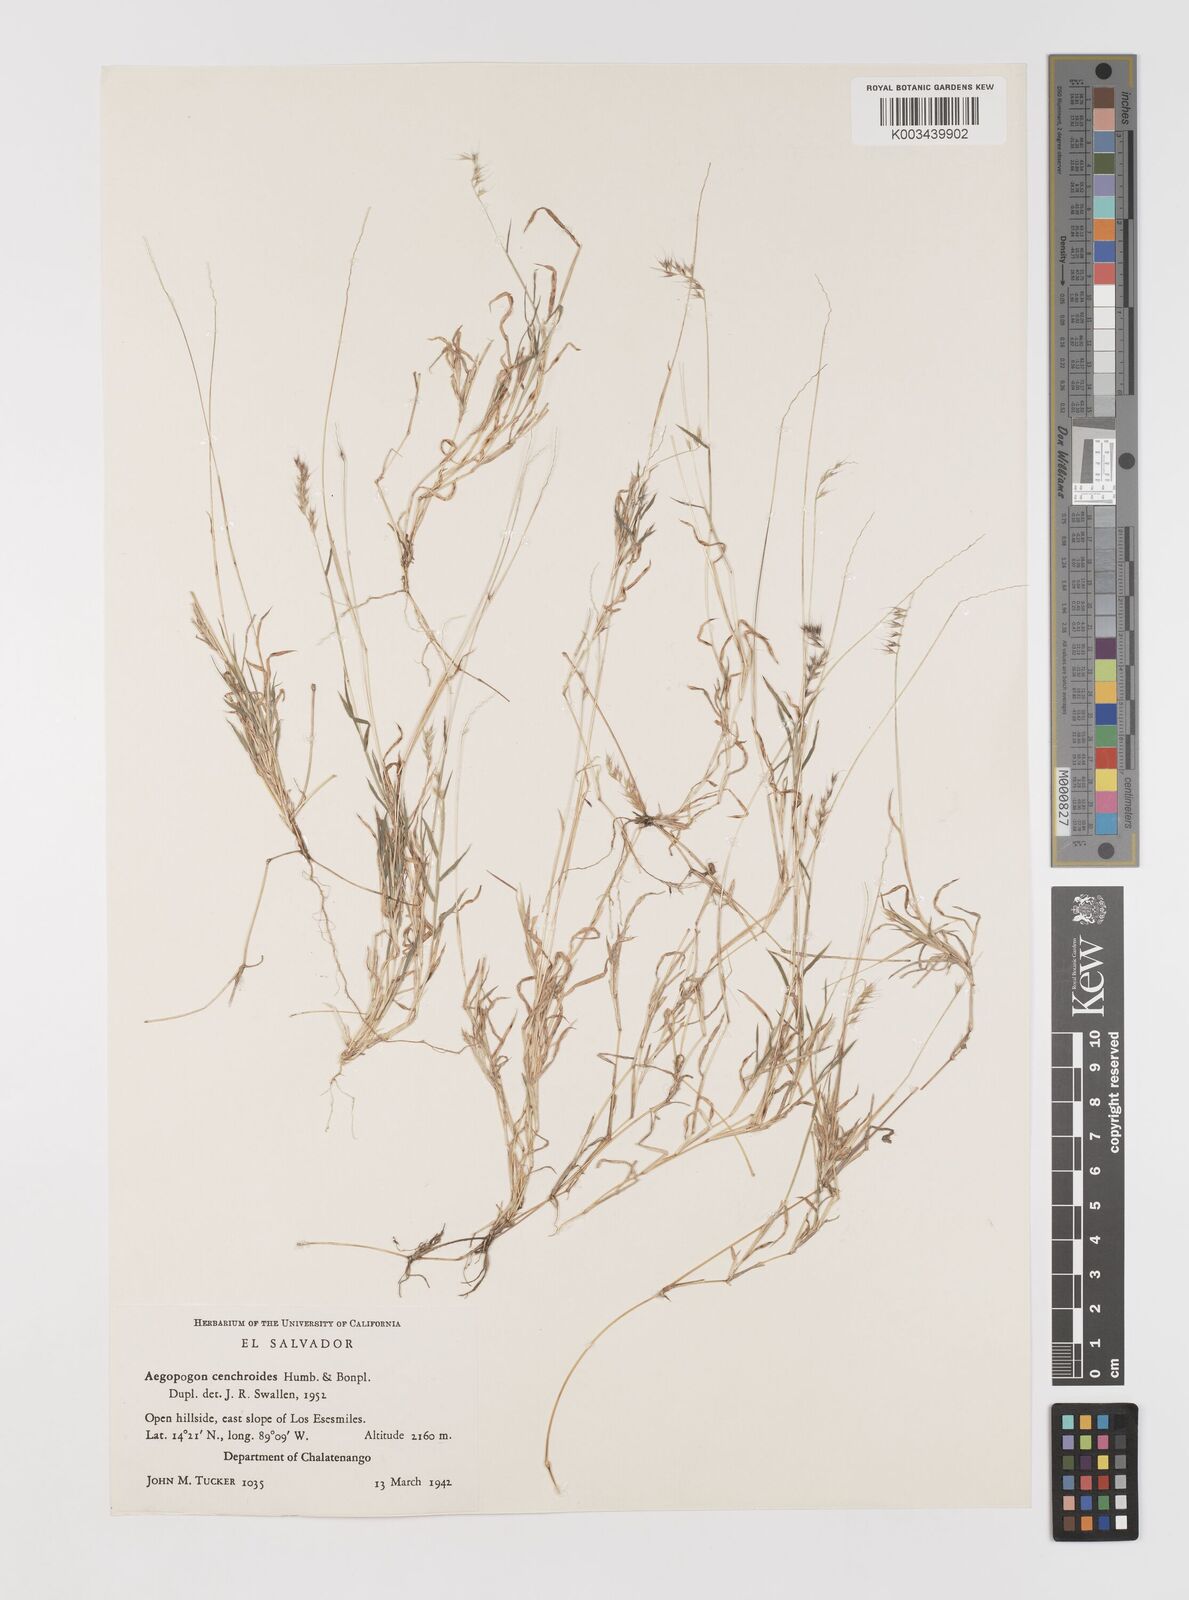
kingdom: Plantae
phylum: Tracheophyta
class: Liliopsida
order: Poales
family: Poaceae
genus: Muhlenbergia
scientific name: Muhlenbergia cenchroides
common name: Relaxgrass
